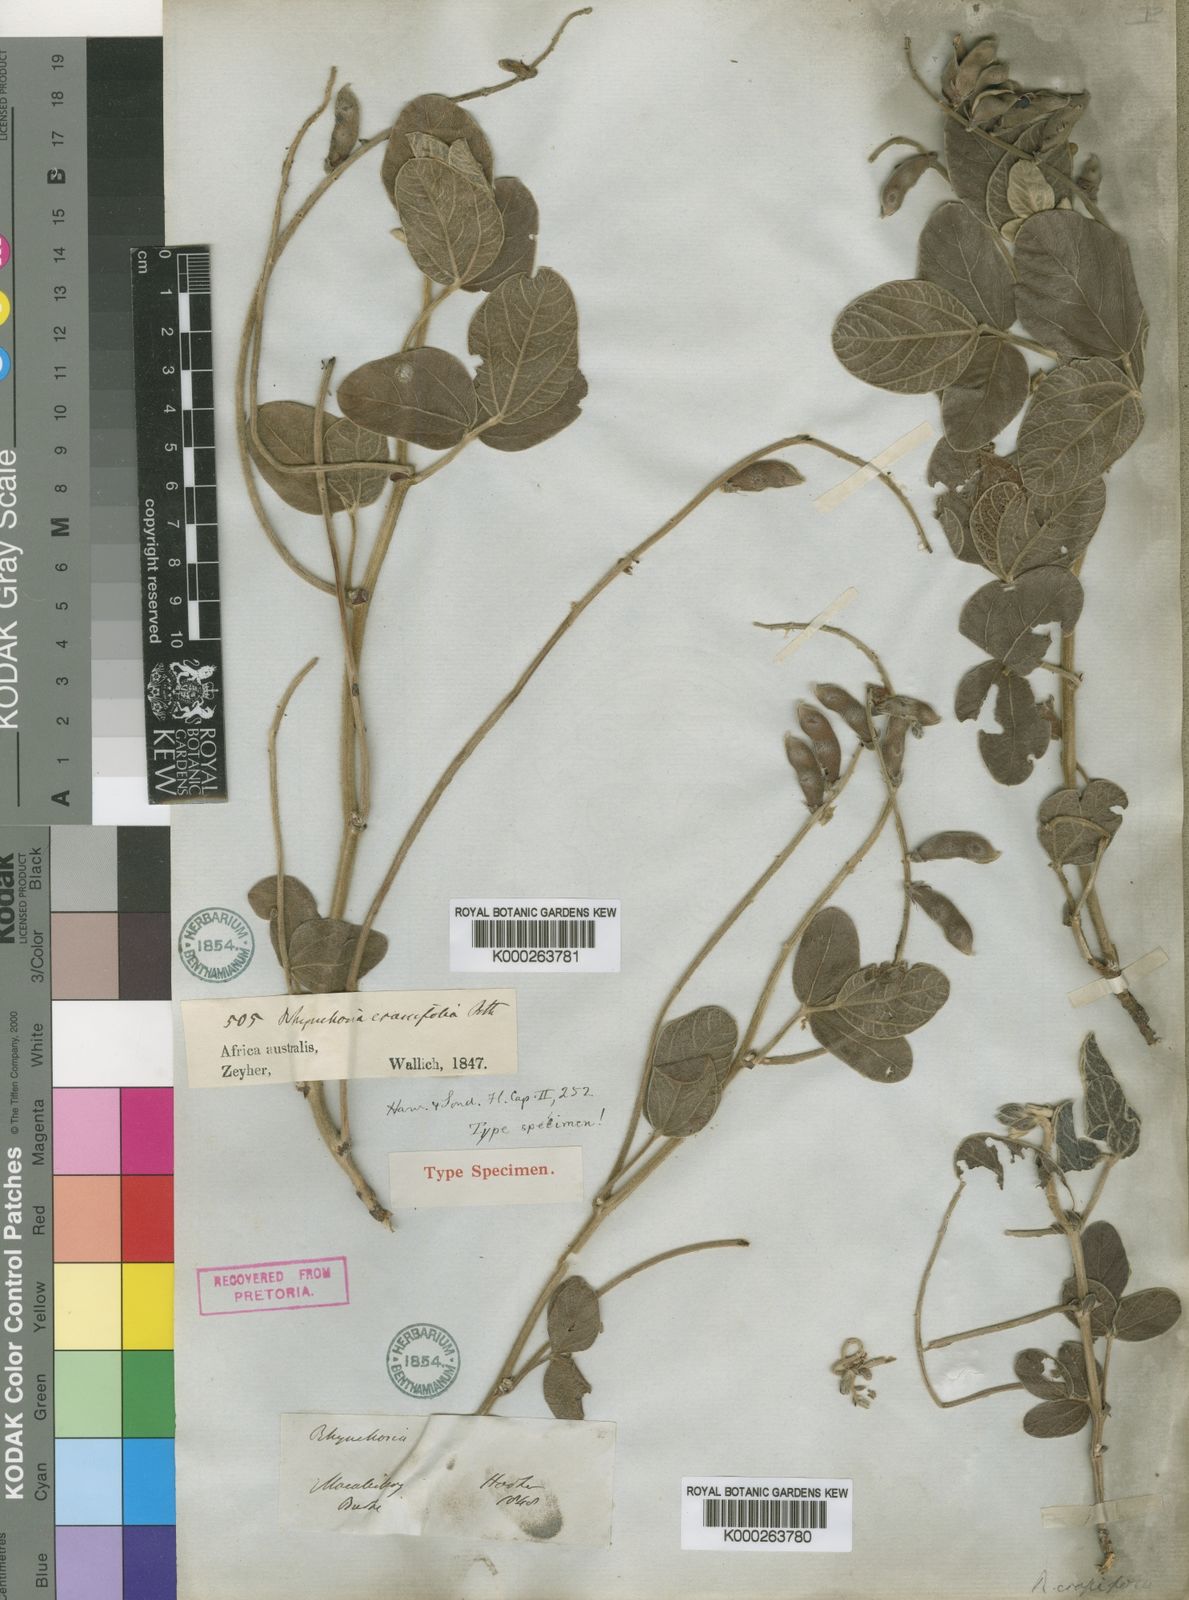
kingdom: Plantae
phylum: Tracheophyta
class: Magnoliopsida
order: Fabales
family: Fabaceae
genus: Rhynchosia
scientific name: Rhynchosia
